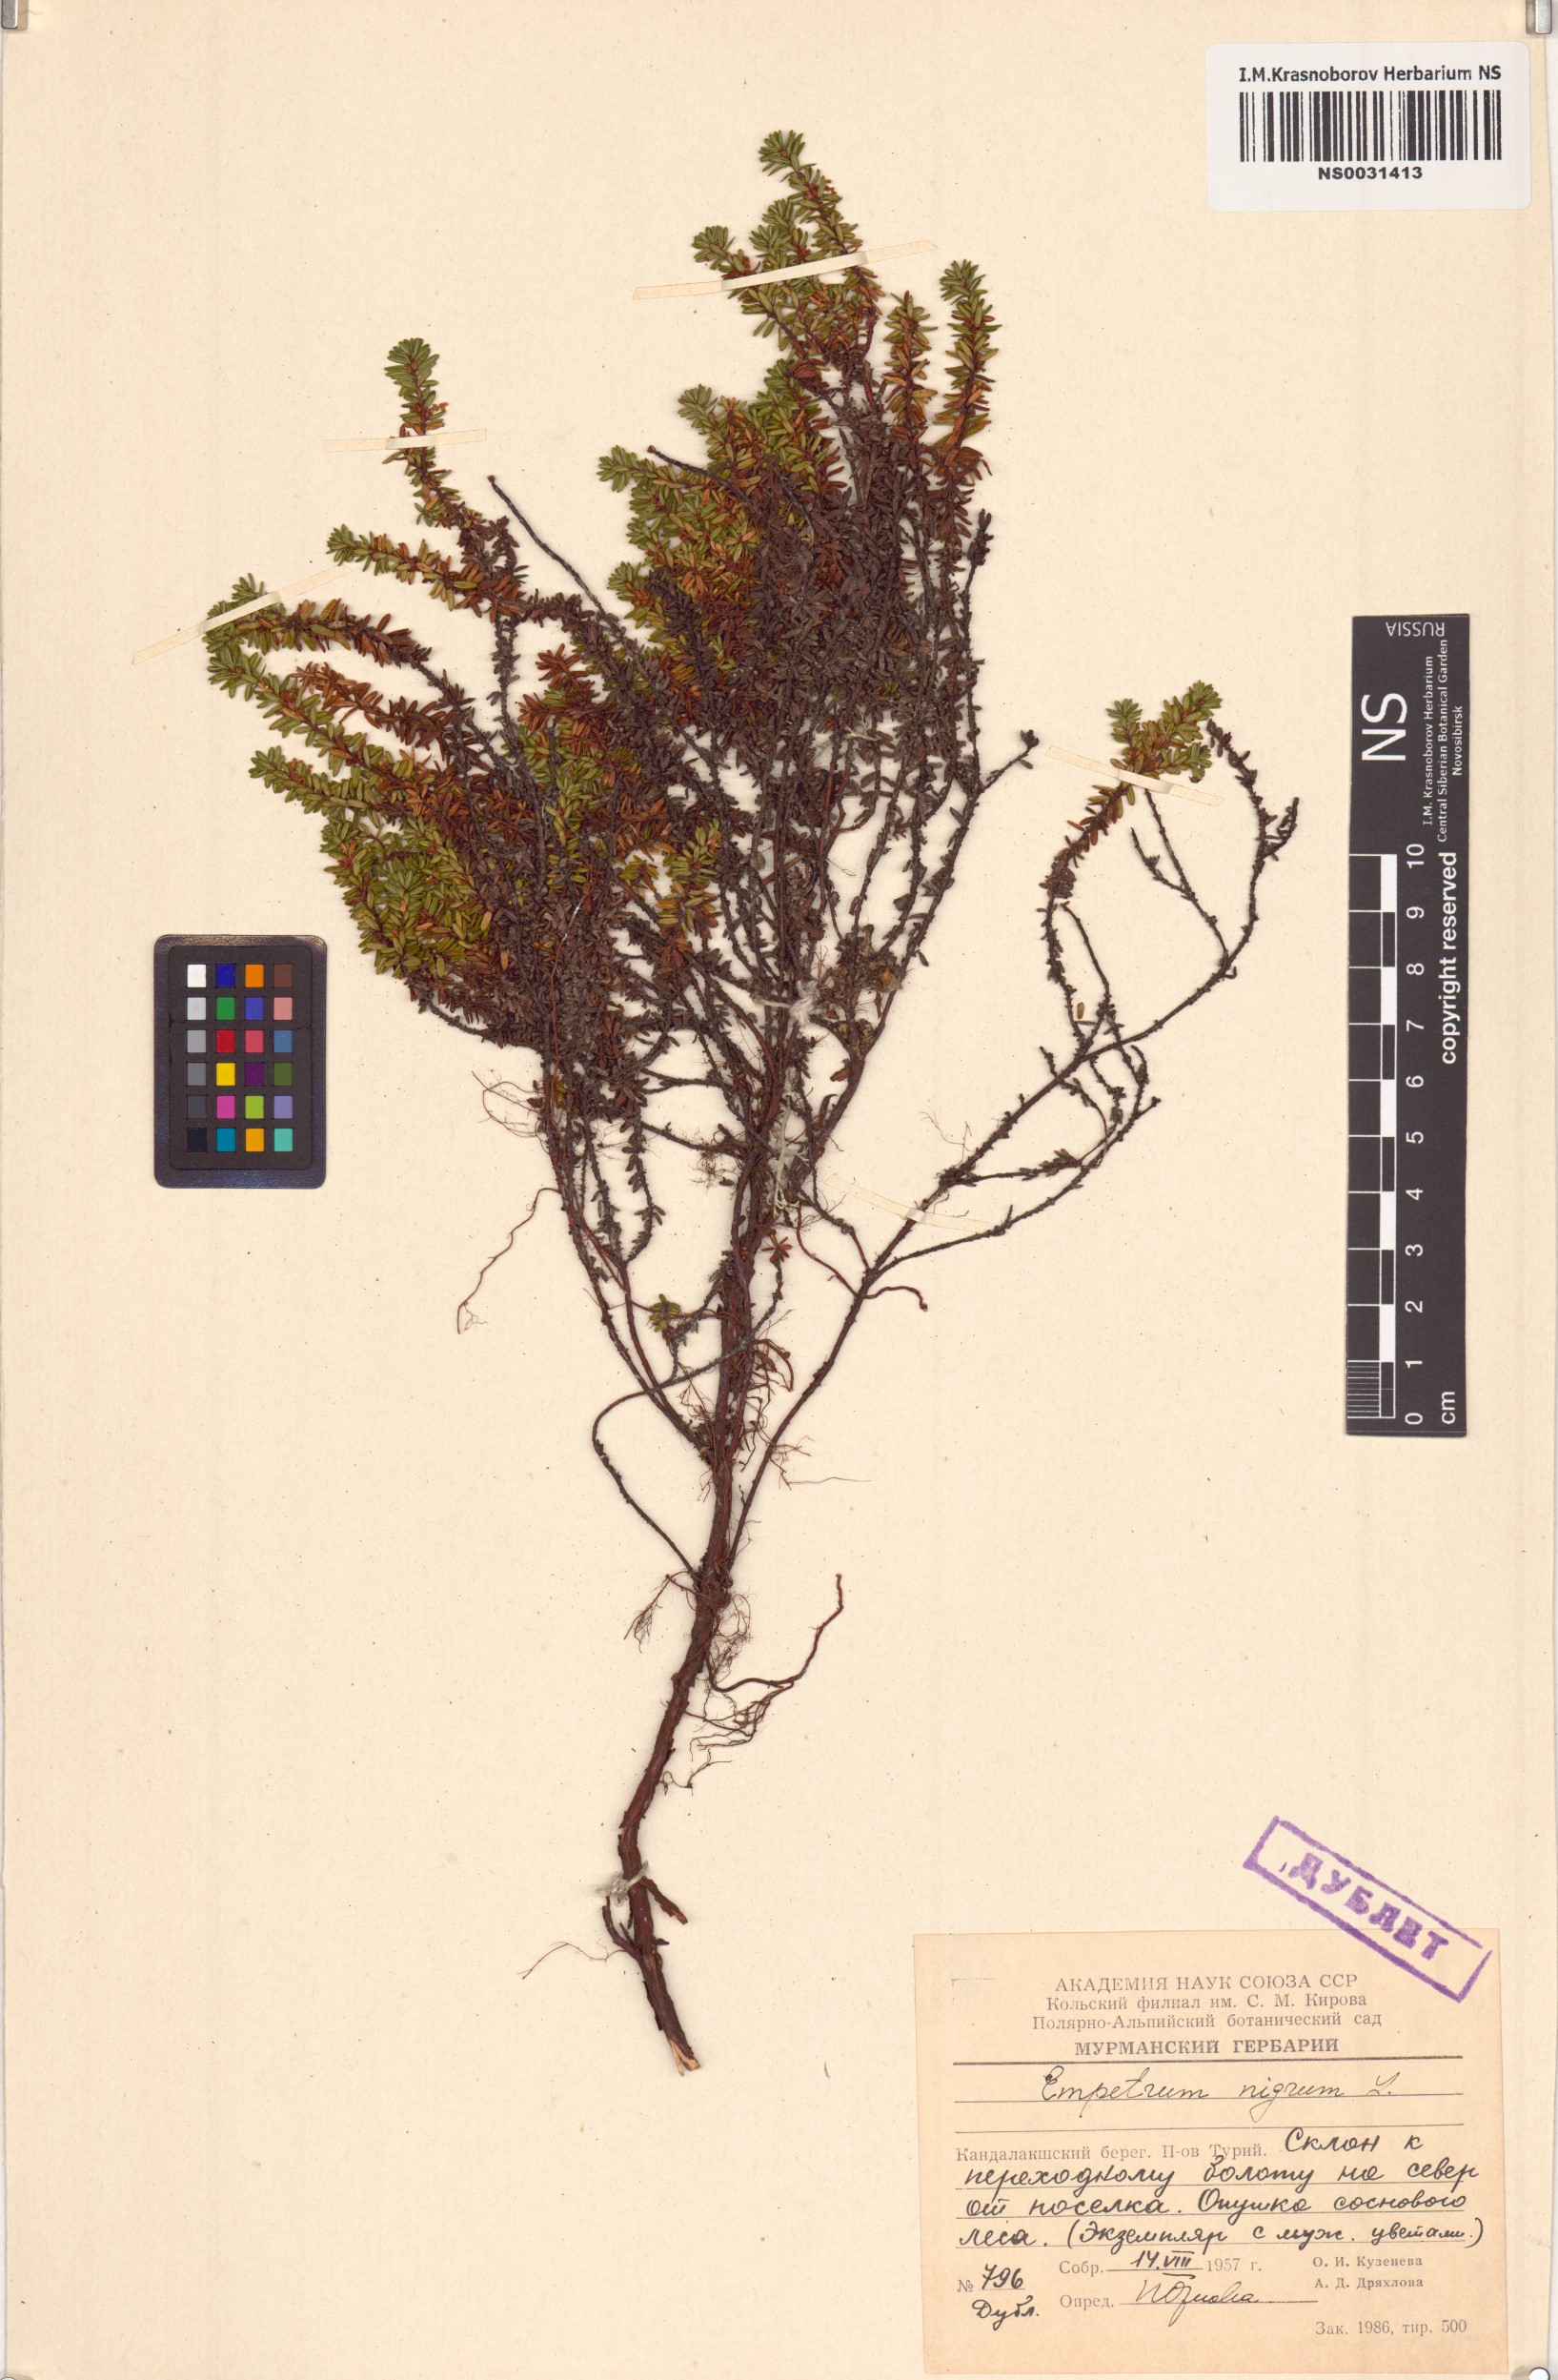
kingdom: Plantae
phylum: Tracheophyta
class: Magnoliopsida
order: Ericales
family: Ericaceae
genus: Empetrum
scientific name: Empetrum nigrum
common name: Black crowberry
